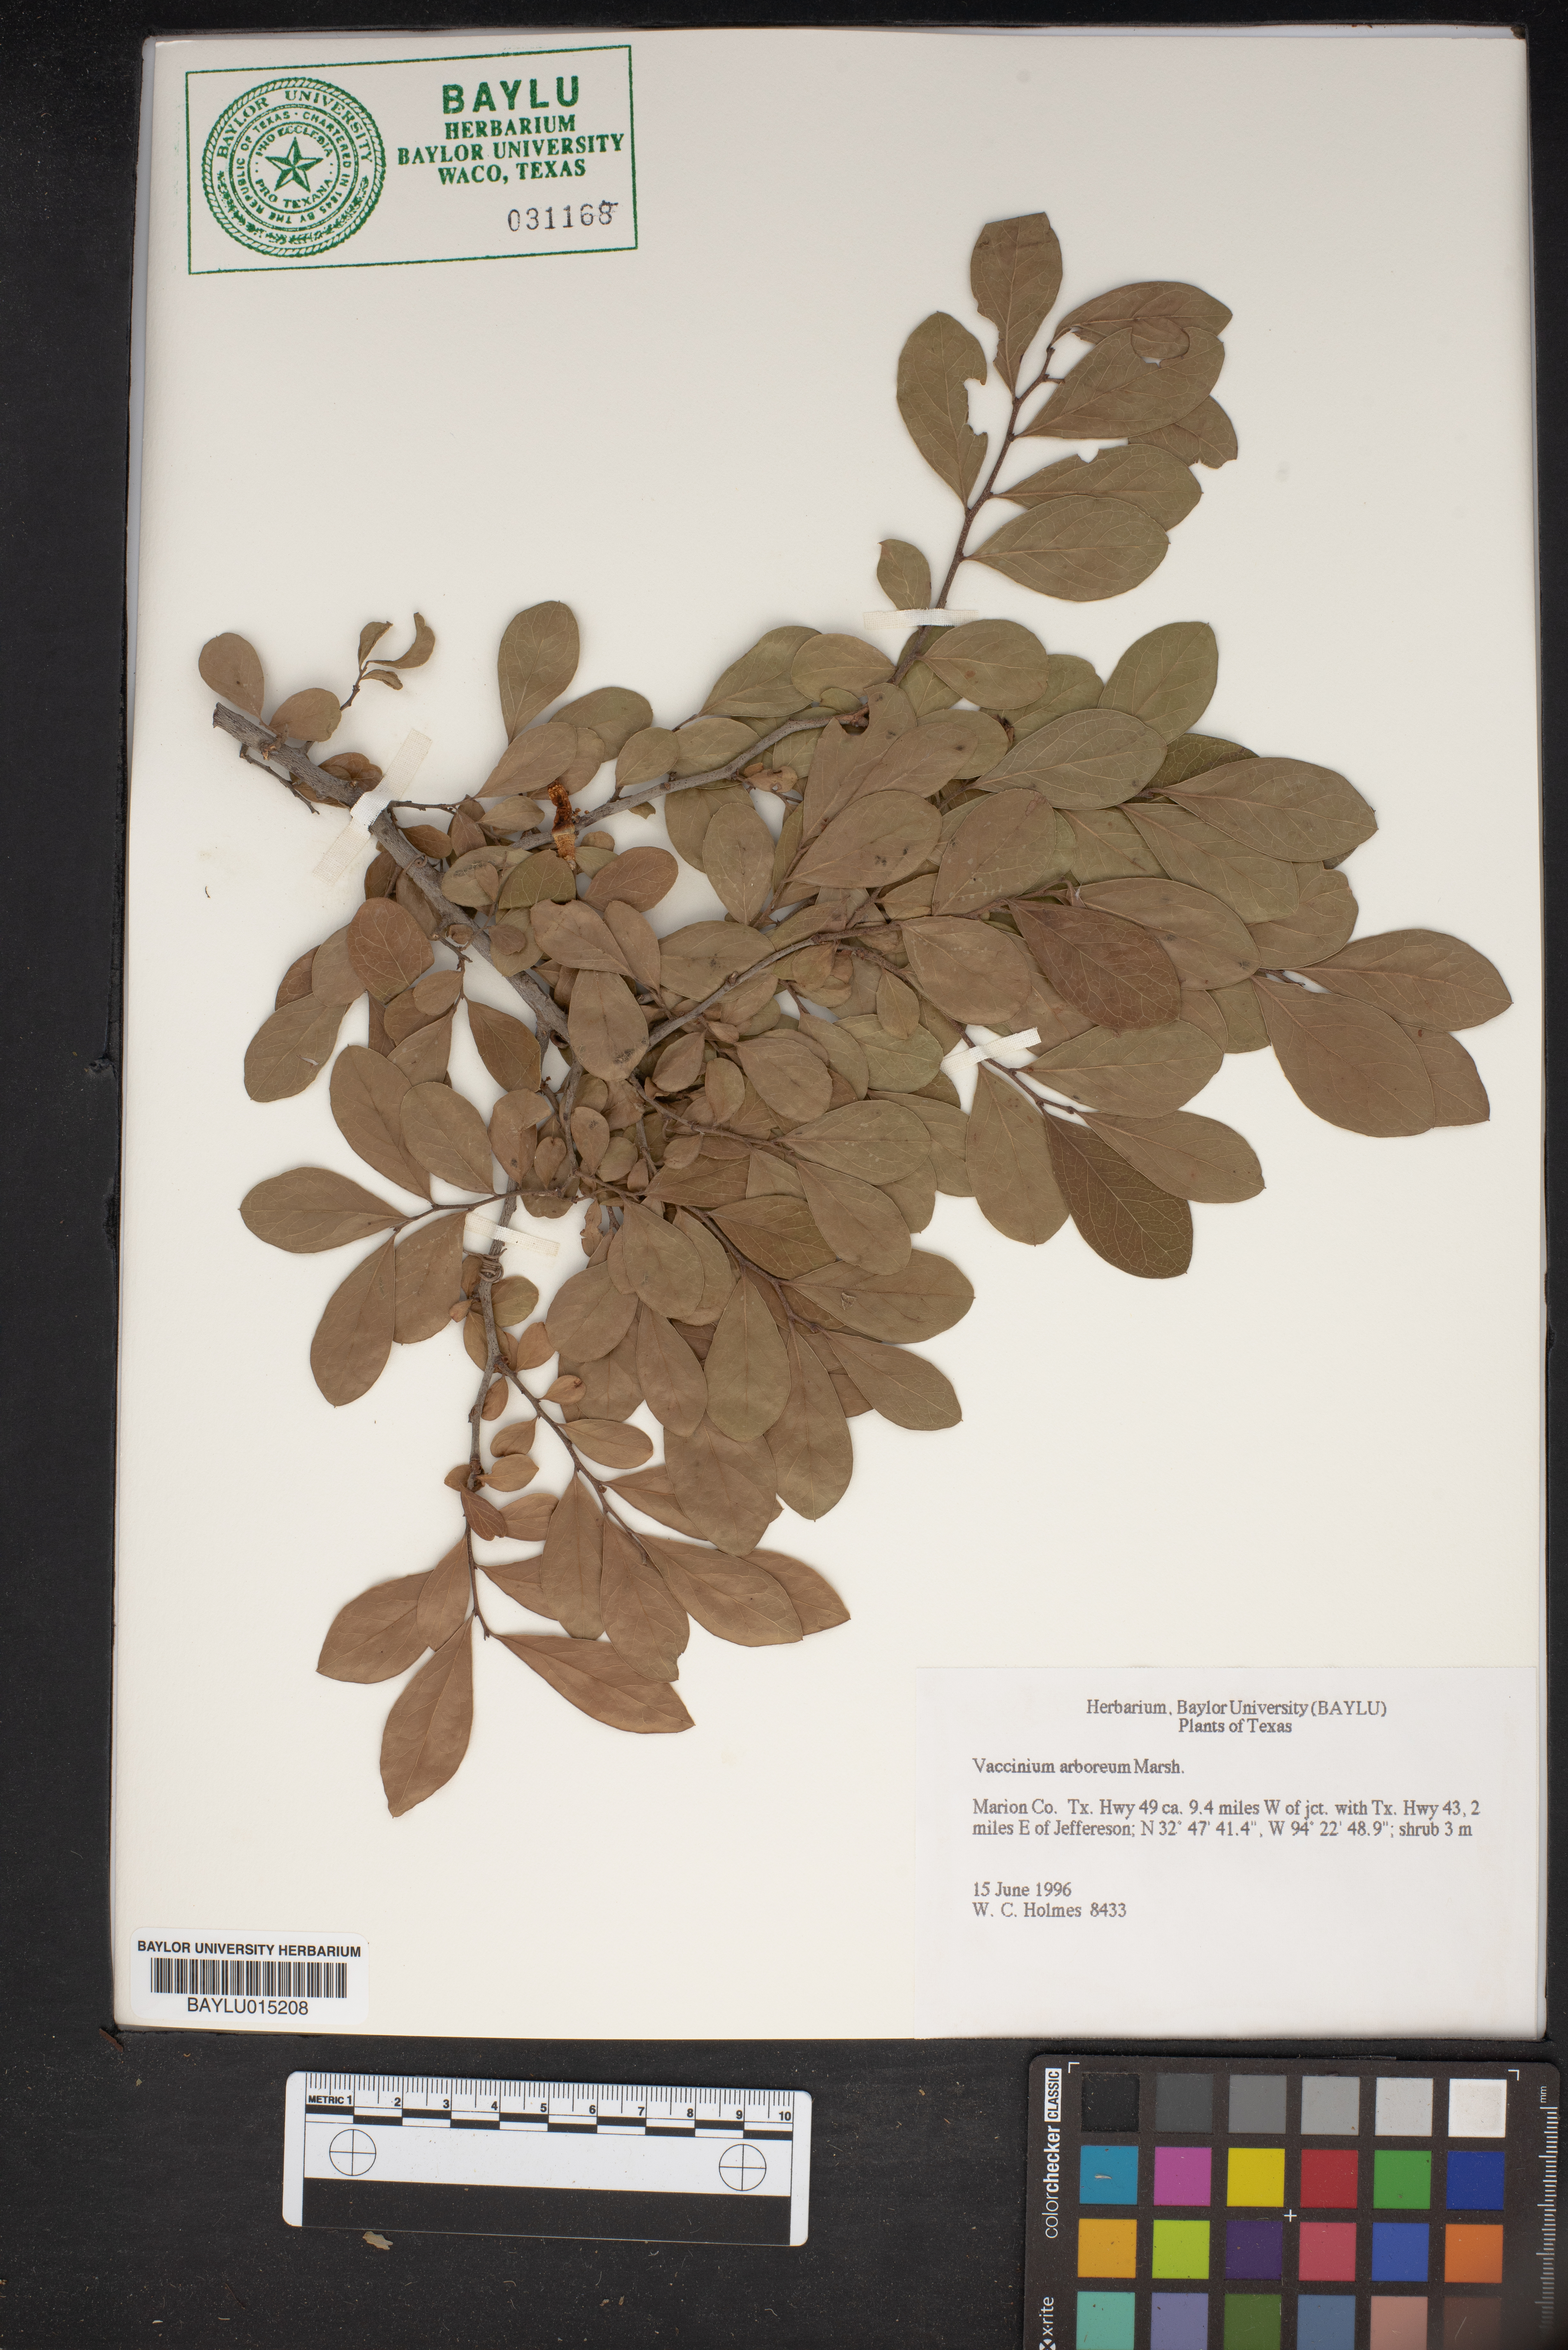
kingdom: Plantae
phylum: Tracheophyta
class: Magnoliopsida
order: Ericales
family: Ericaceae
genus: Vaccinium
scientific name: Vaccinium arboreum
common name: Farkleberry
